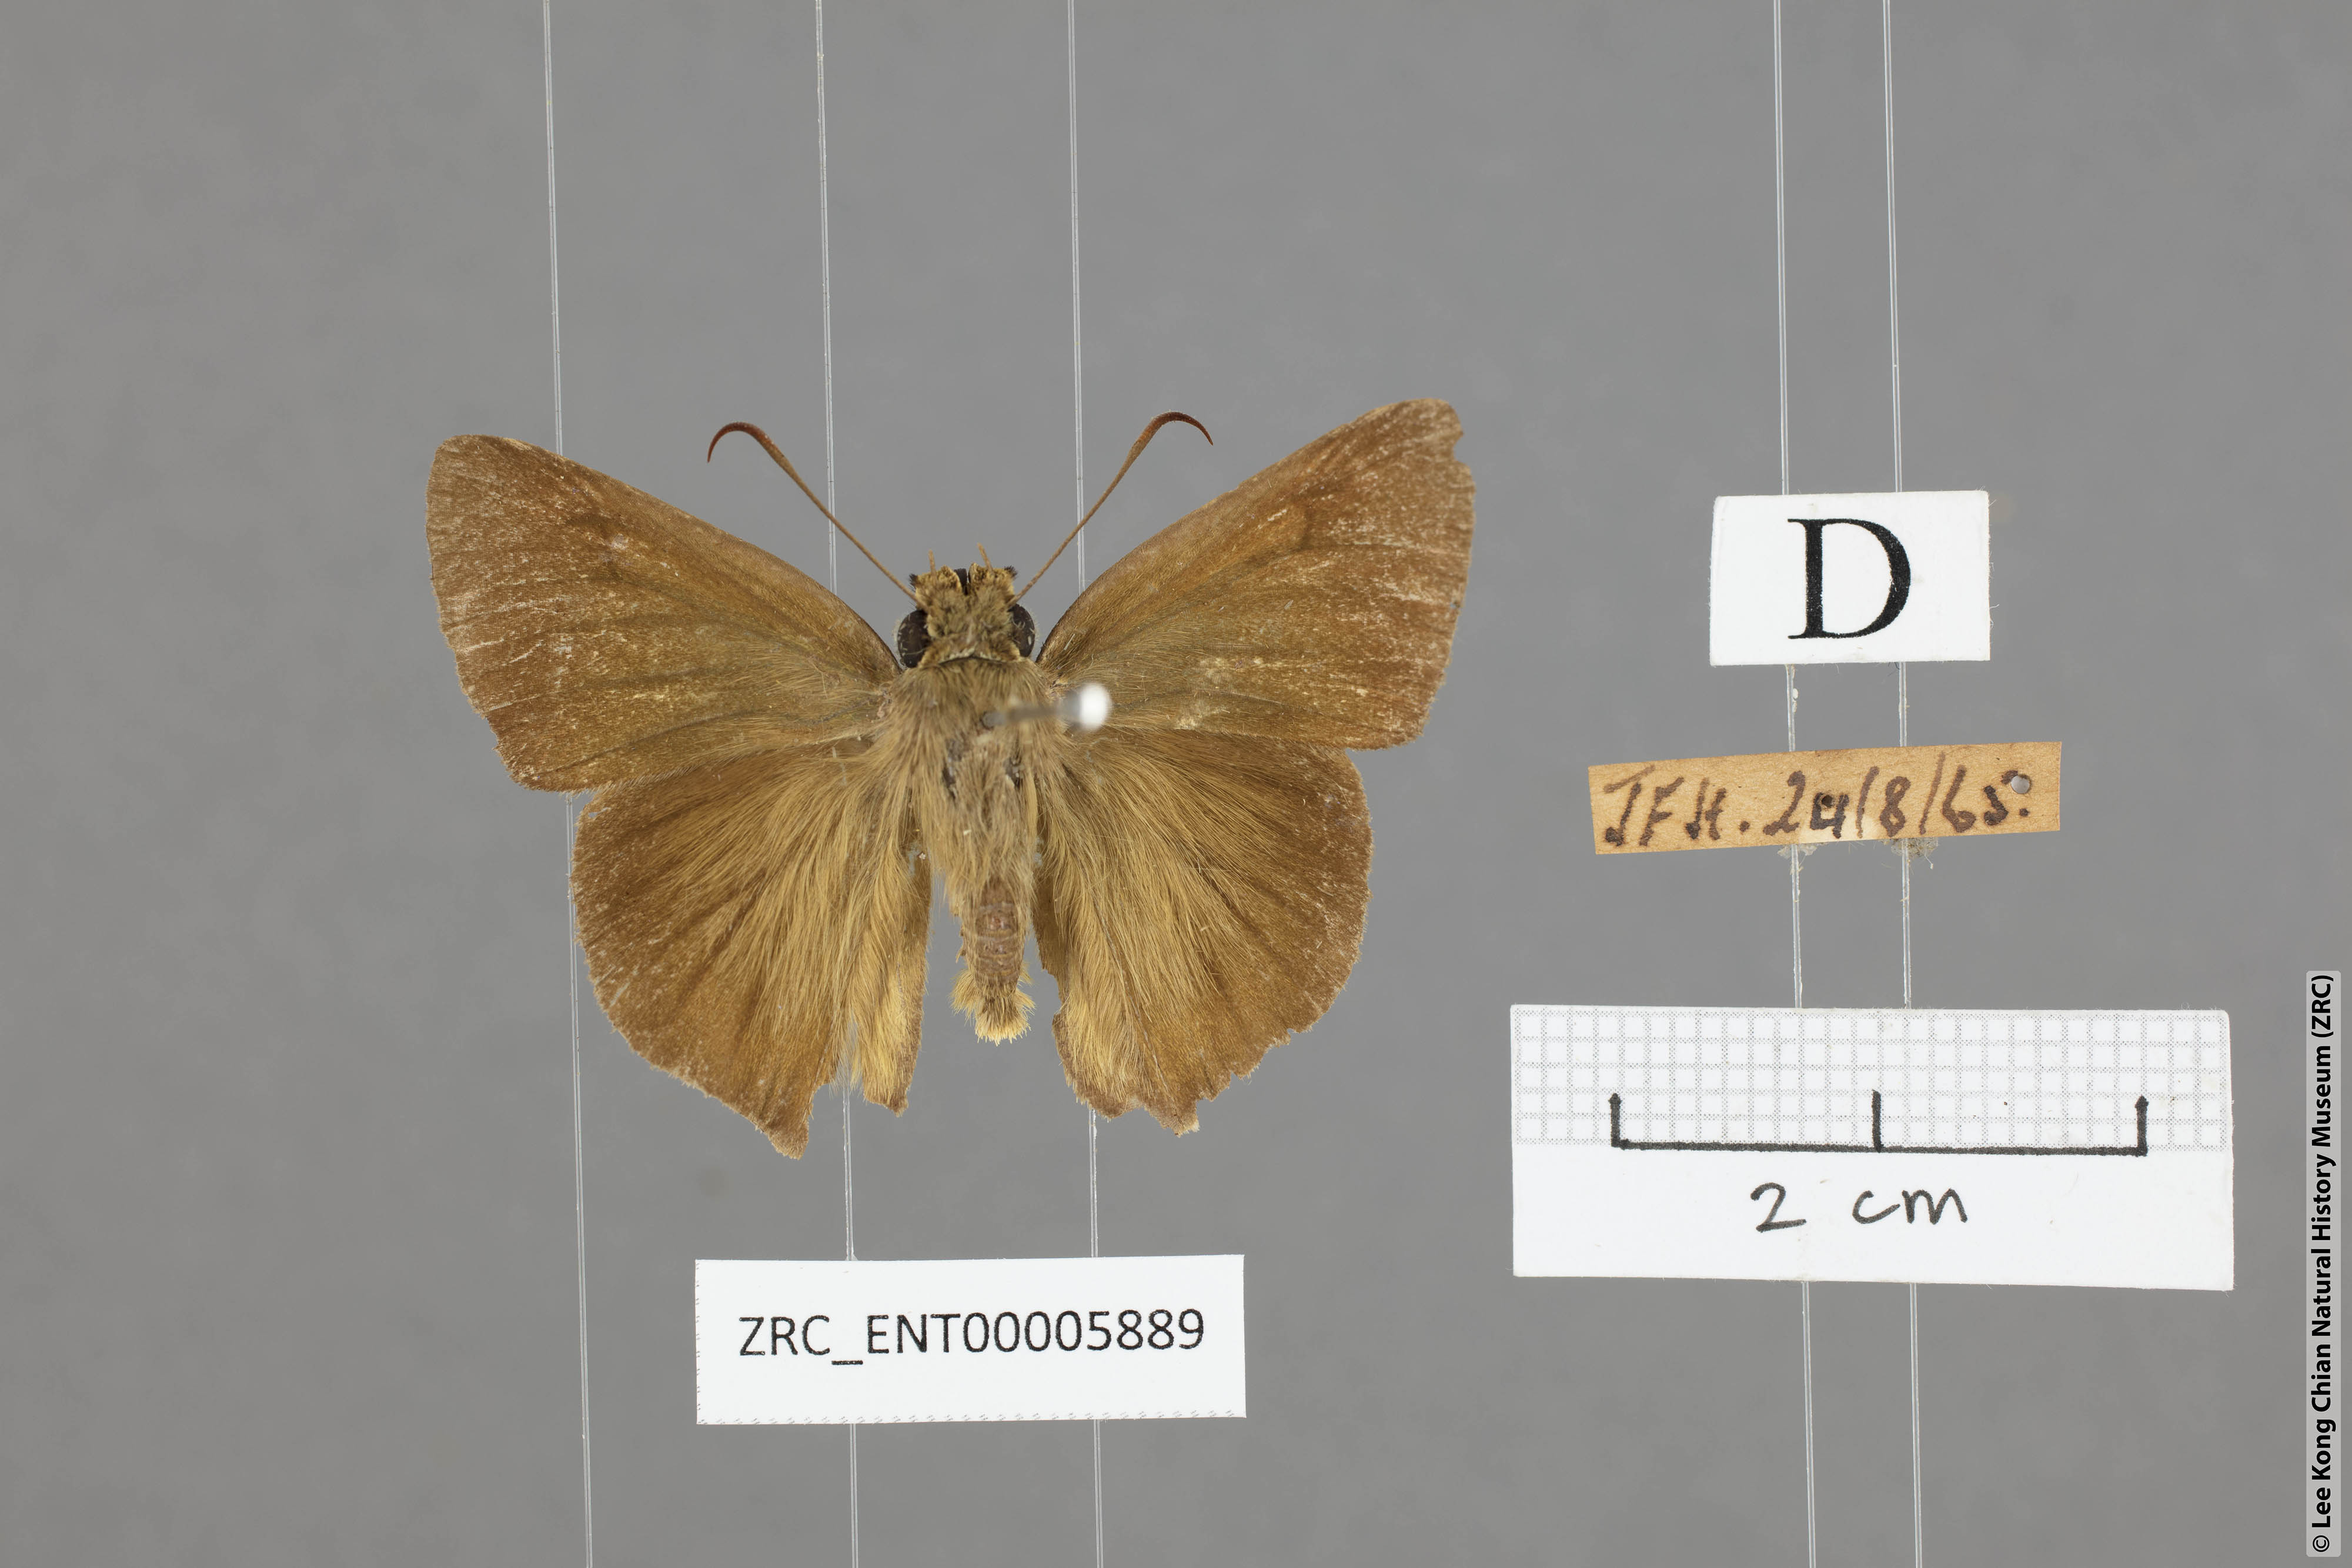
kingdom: Animalia
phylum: Arthropoda
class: Insecta
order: Lepidoptera
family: Hesperiidae
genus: Hasora
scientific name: Hasora myra
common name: Pale-tailed awl
